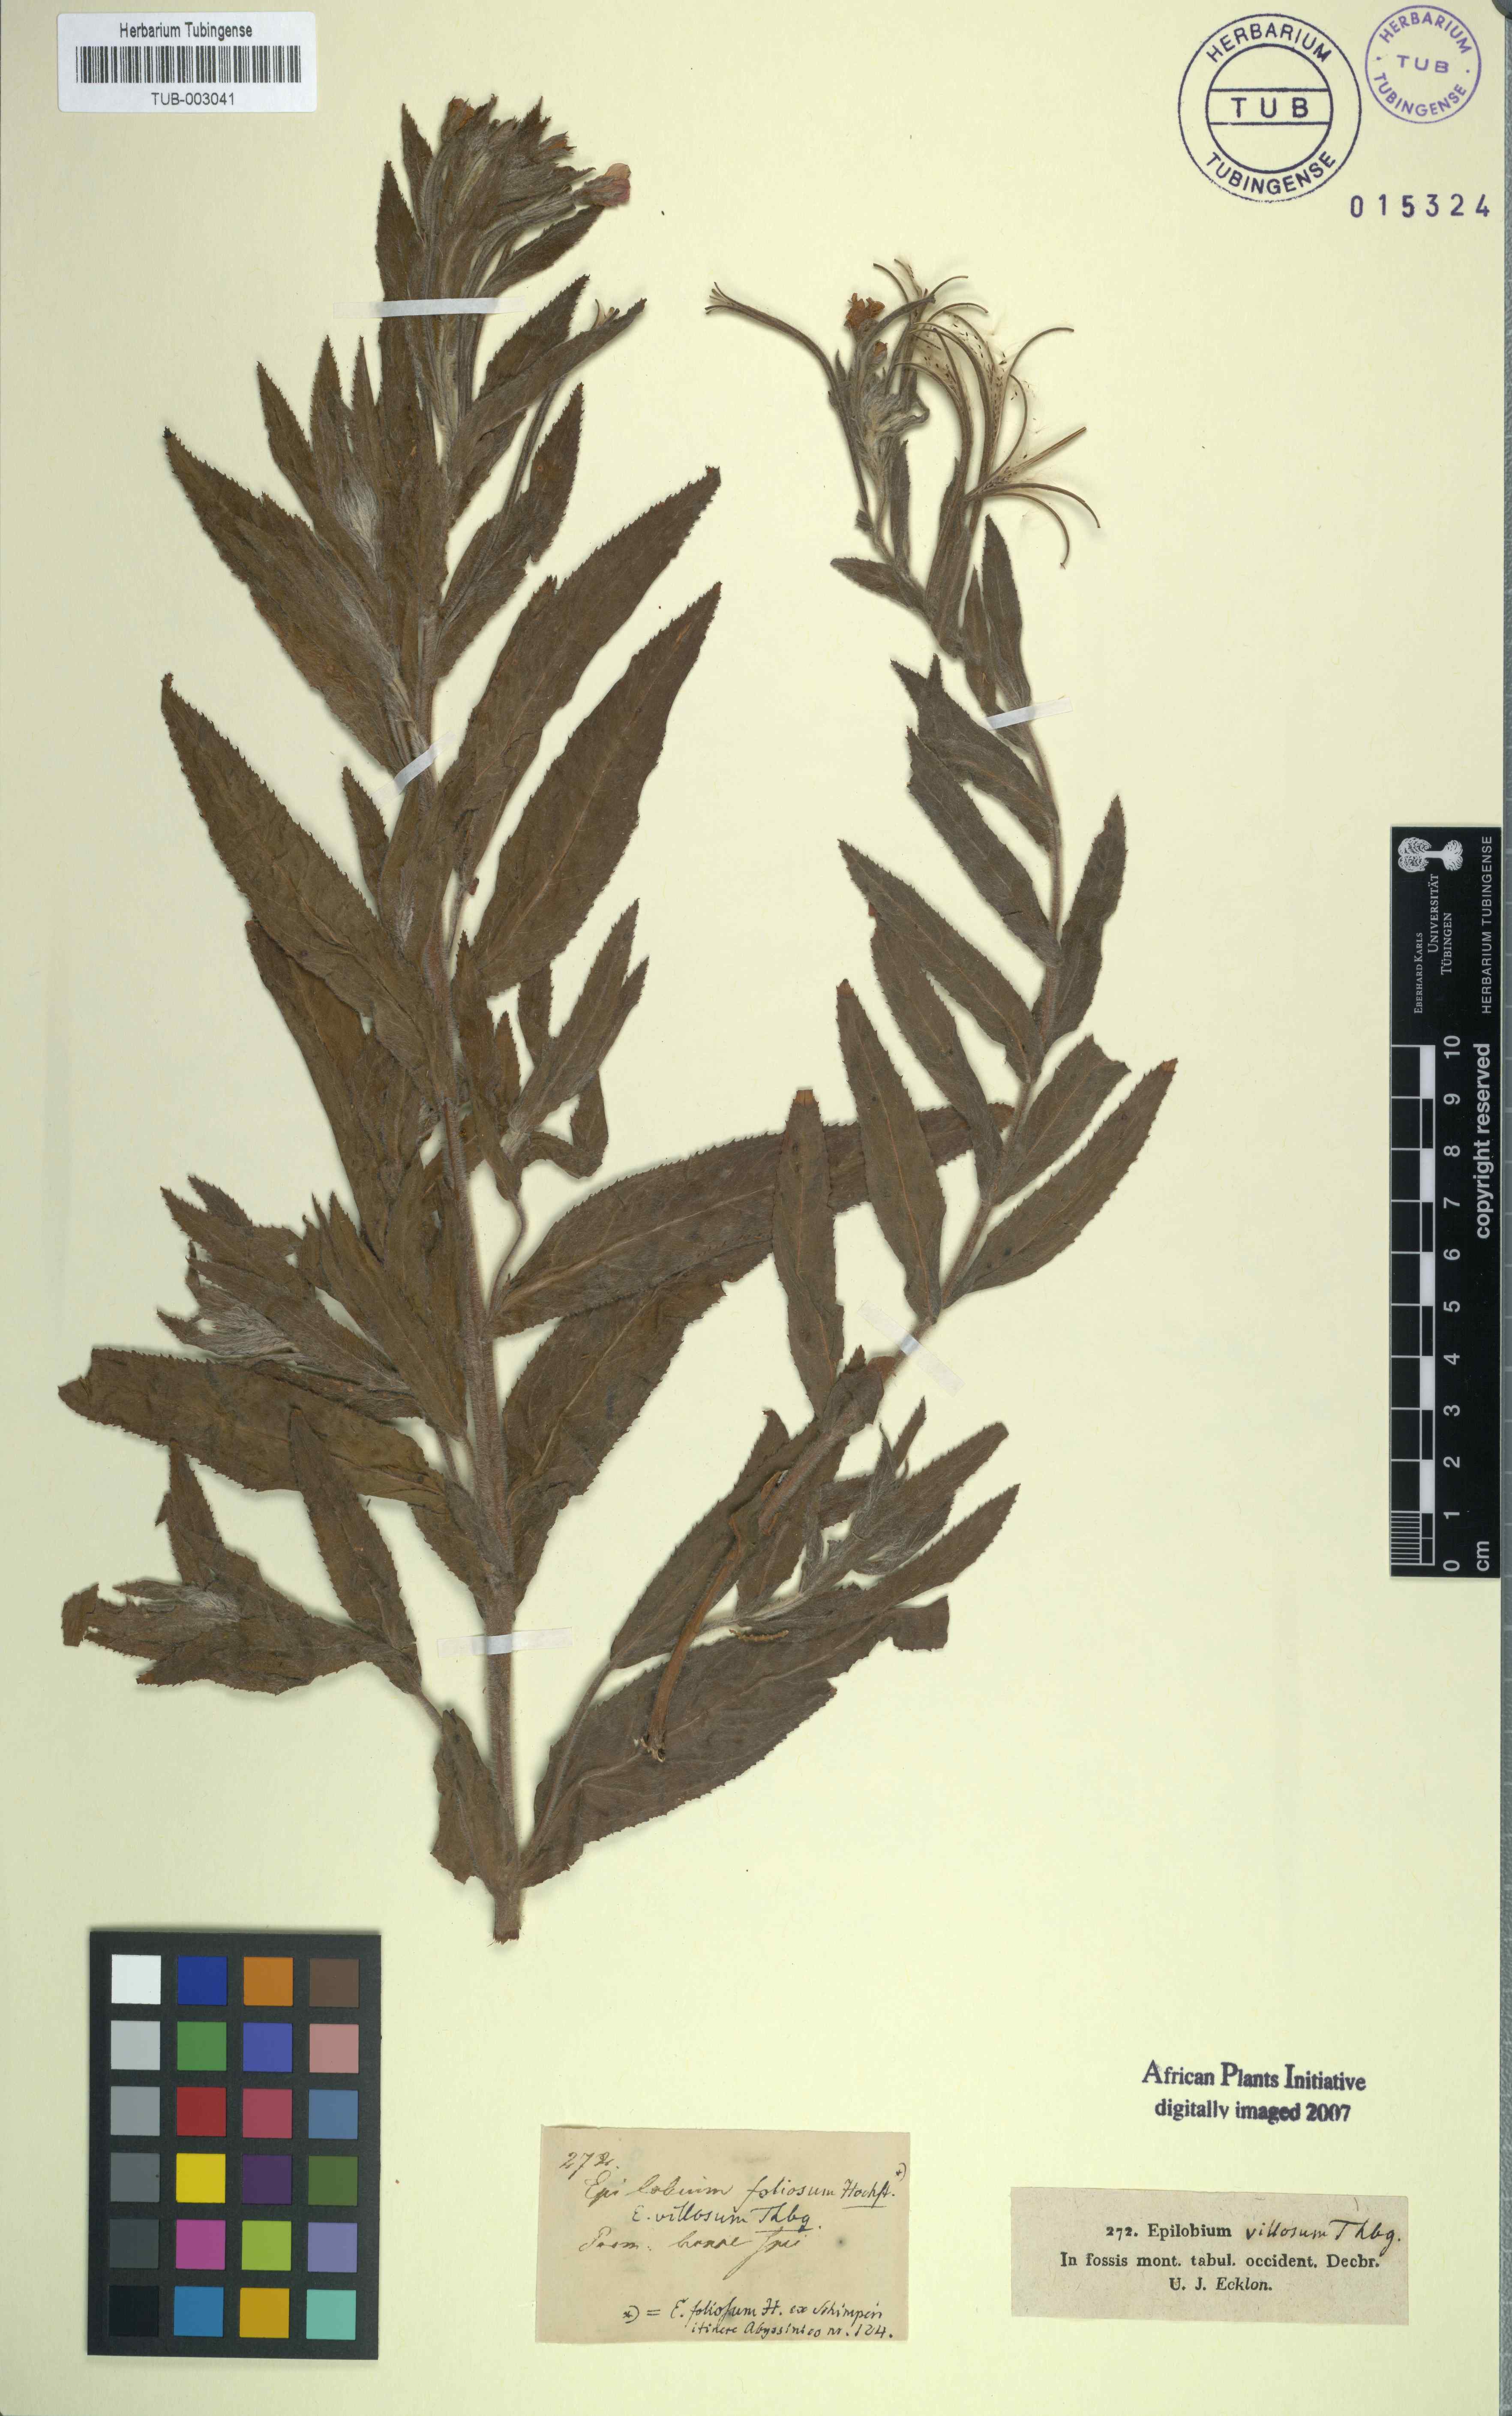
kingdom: Plantae
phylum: Tracheophyta
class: Magnoliopsida
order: Myrtales
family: Onagraceae
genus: Epilobium
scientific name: Epilobium hirsutum
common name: Great willowherb
